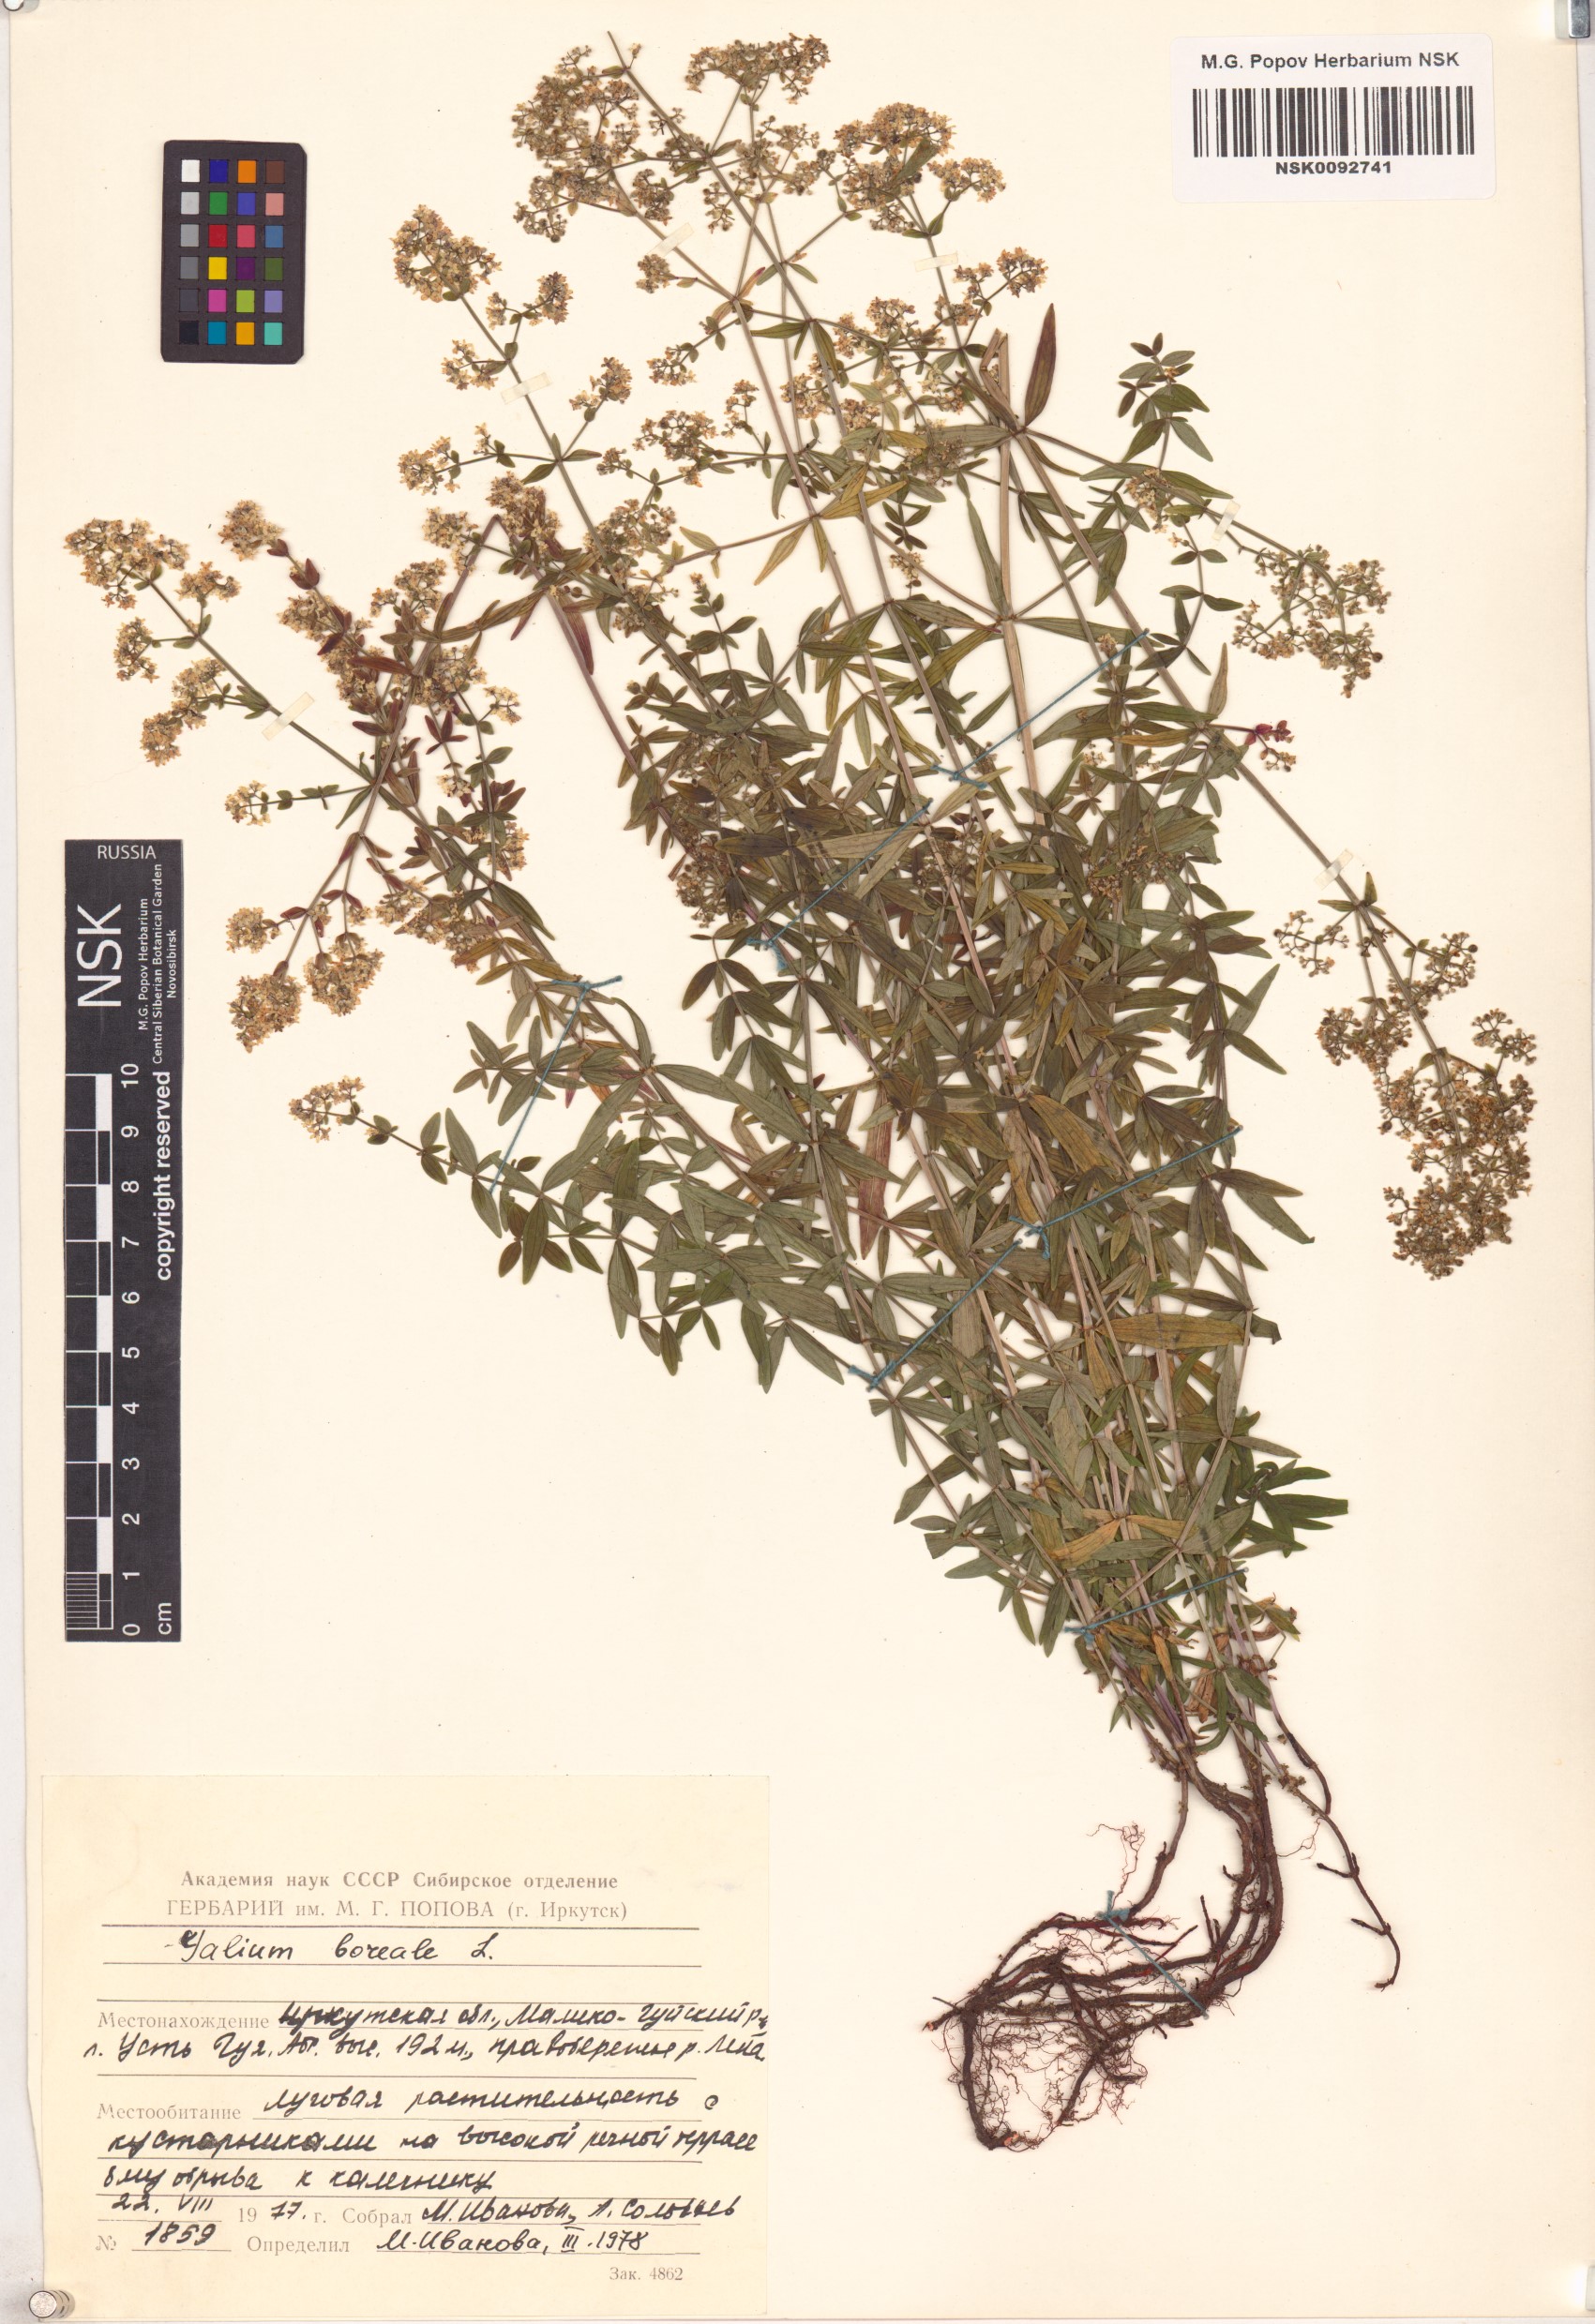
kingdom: Plantae
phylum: Tracheophyta
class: Magnoliopsida
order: Gentianales
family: Rubiaceae
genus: Galium
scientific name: Galium boreale
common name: Northern bedstraw
